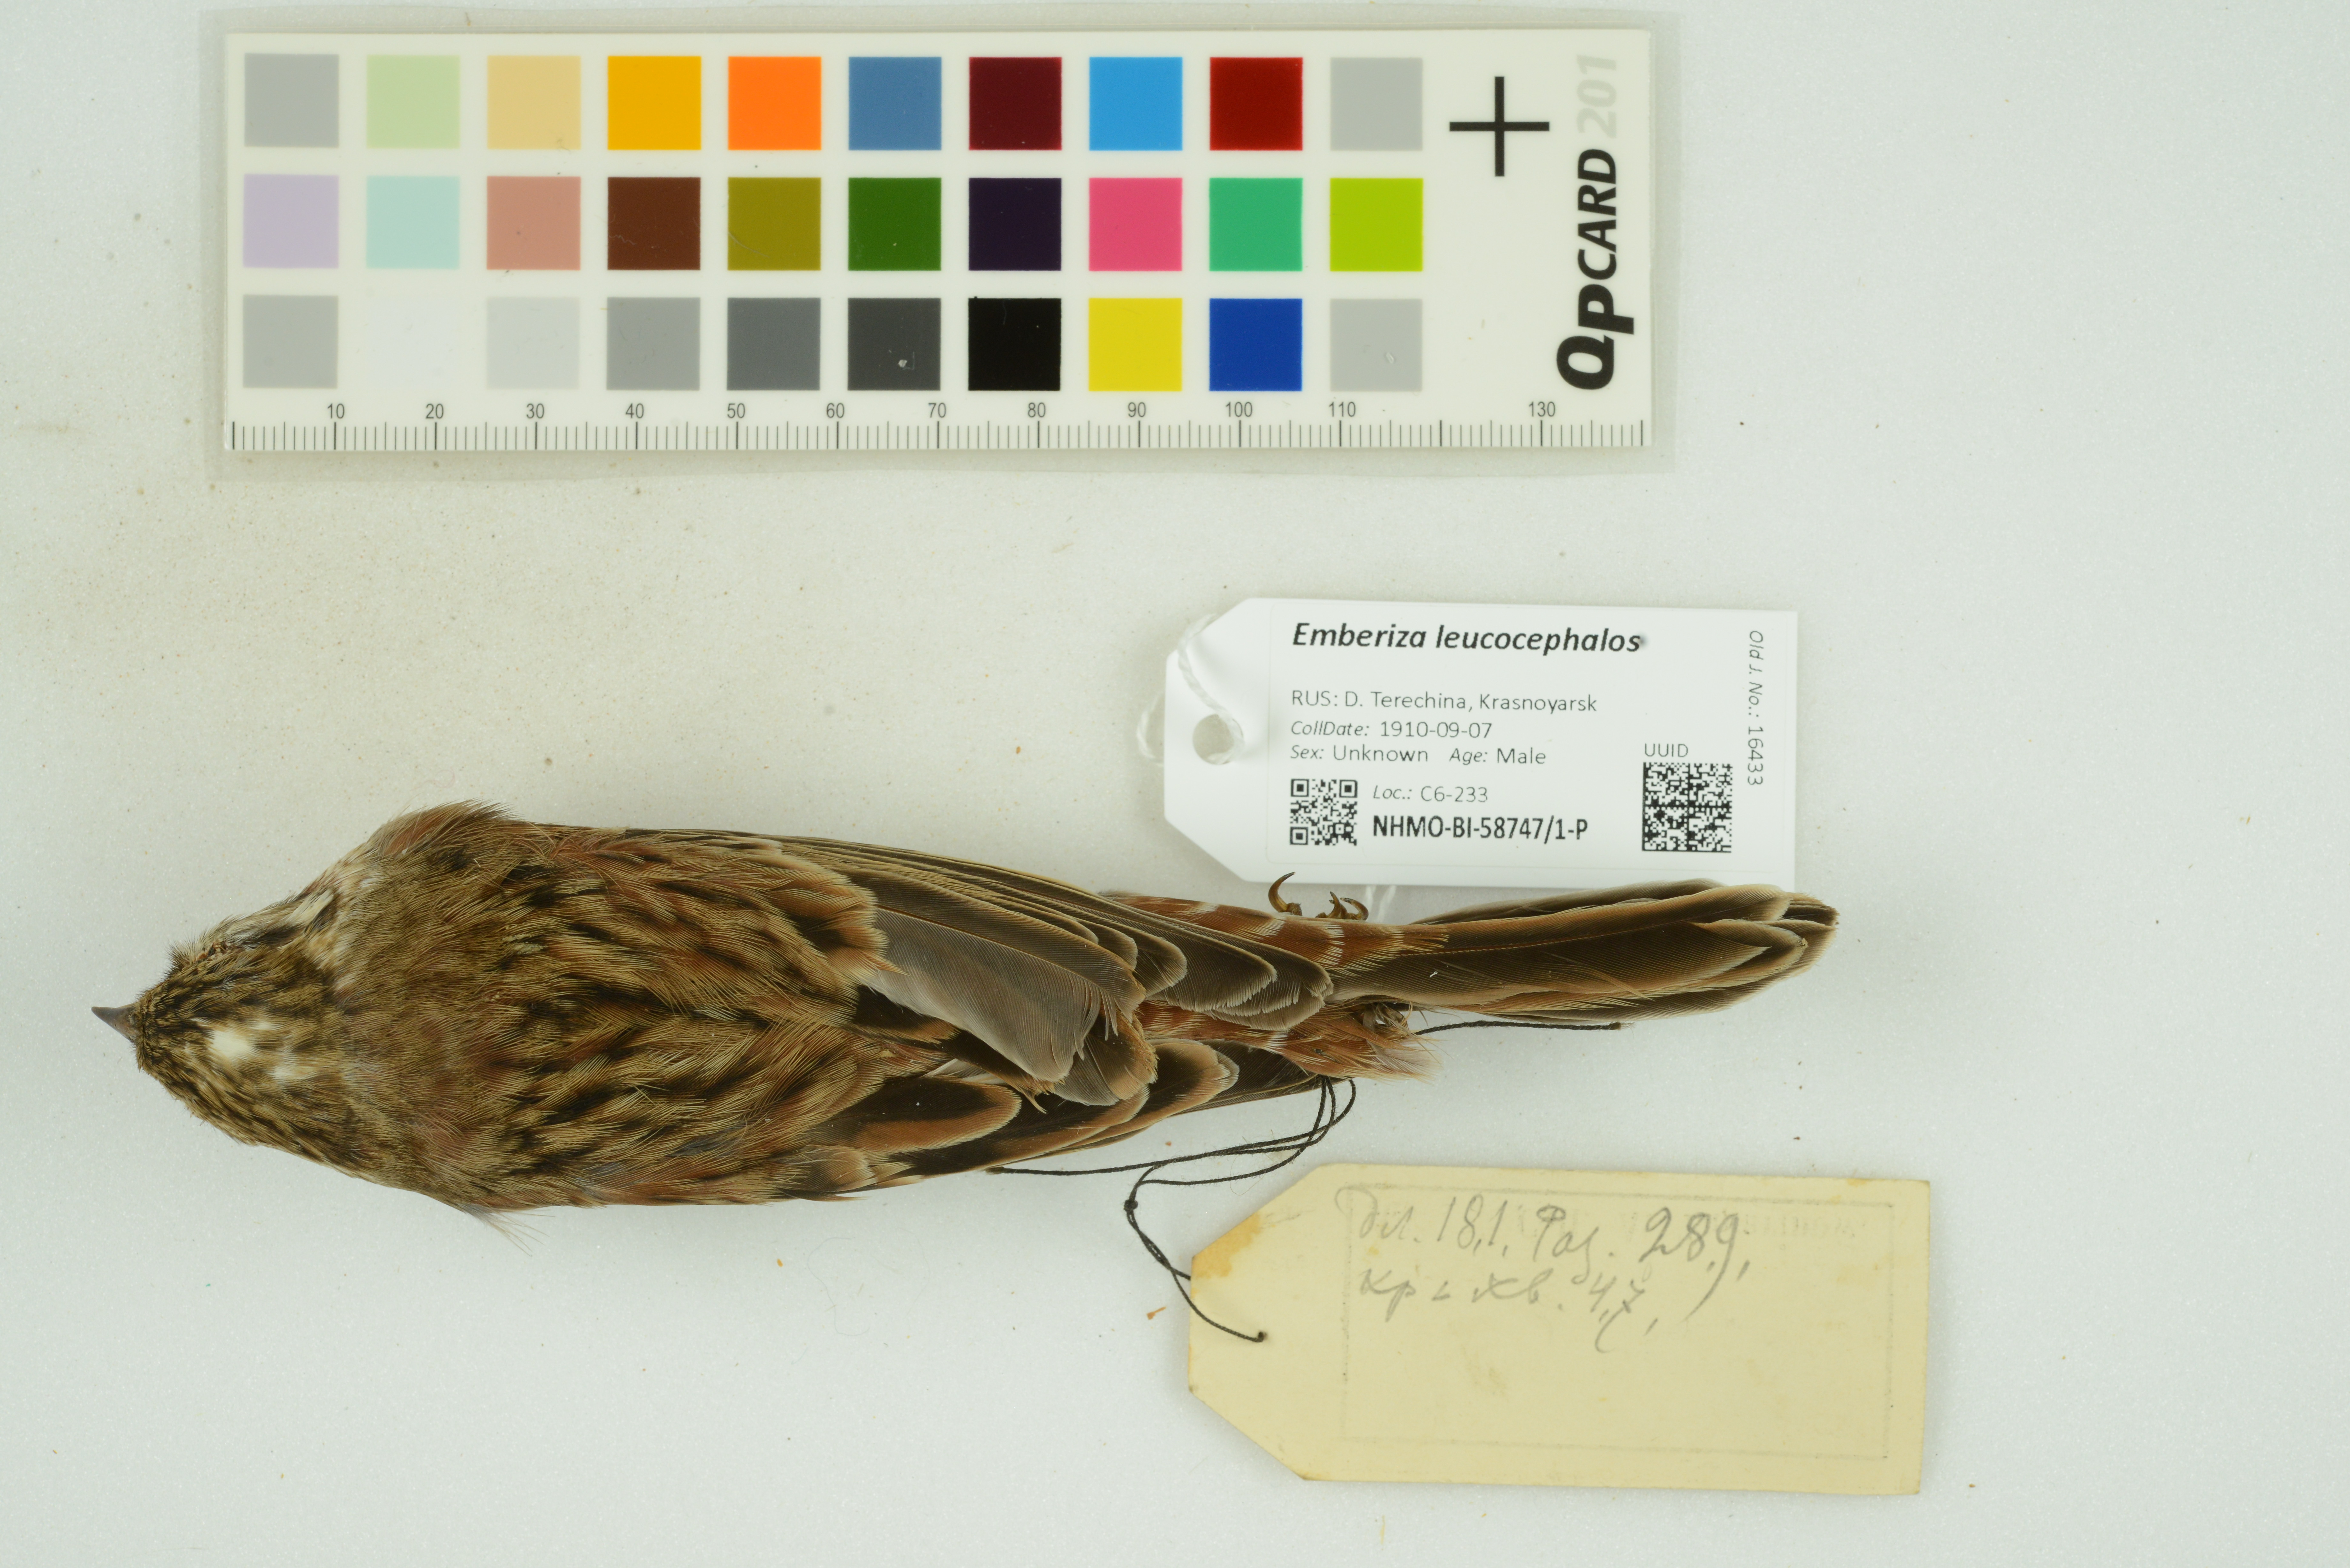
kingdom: Animalia
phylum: Chordata
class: Aves
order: Passeriformes
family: Emberizidae
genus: Emberiza
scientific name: Emberiza leucocephalos
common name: Pine bunting
